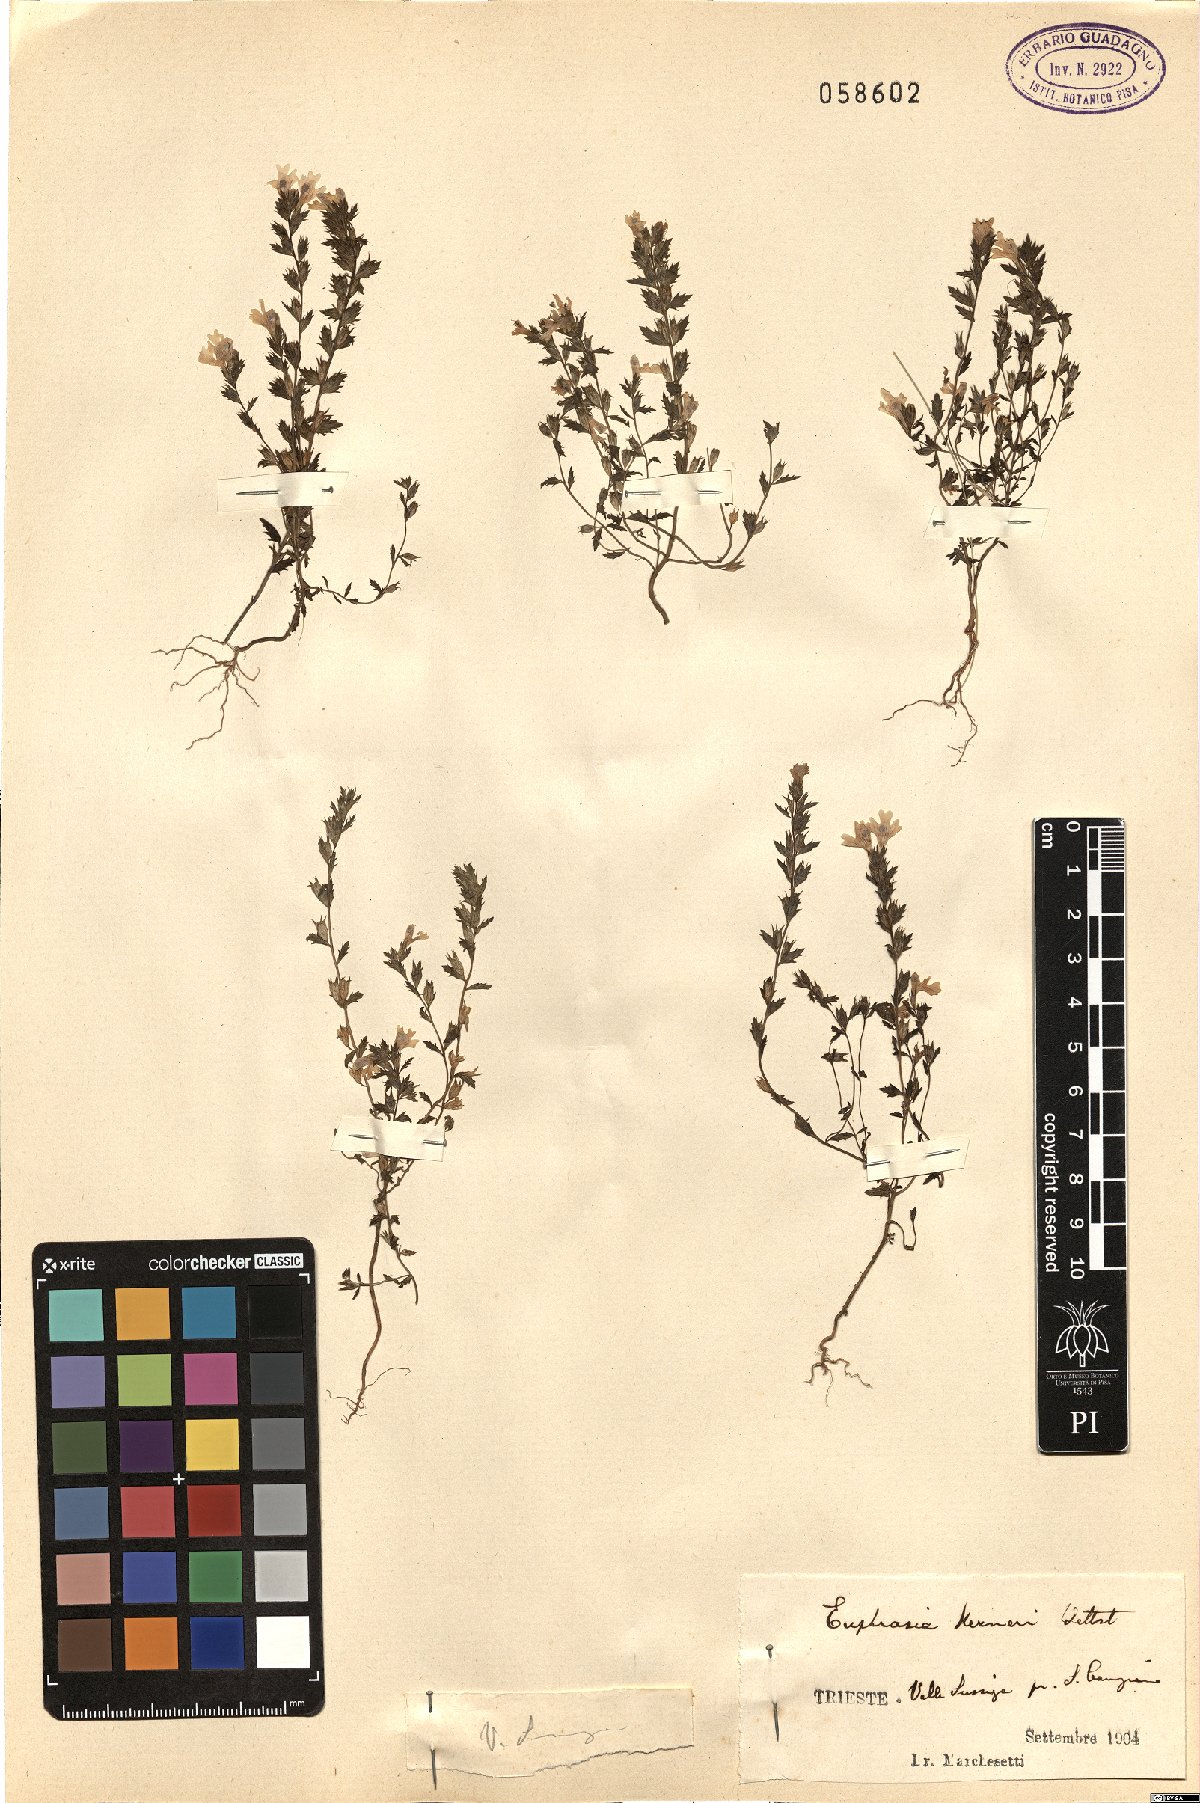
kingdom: Plantae
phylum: Tracheophyta
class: Magnoliopsida
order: Lamiales
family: Orobanchaceae
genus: Euphrasia
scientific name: Euphrasia kerneri
